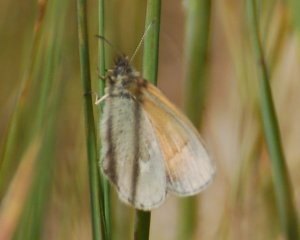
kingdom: Animalia
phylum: Arthropoda
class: Insecta
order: Lepidoptera
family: Nymphalidae
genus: Coenonympha
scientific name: Coenonympha tullia
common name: Large Heath
